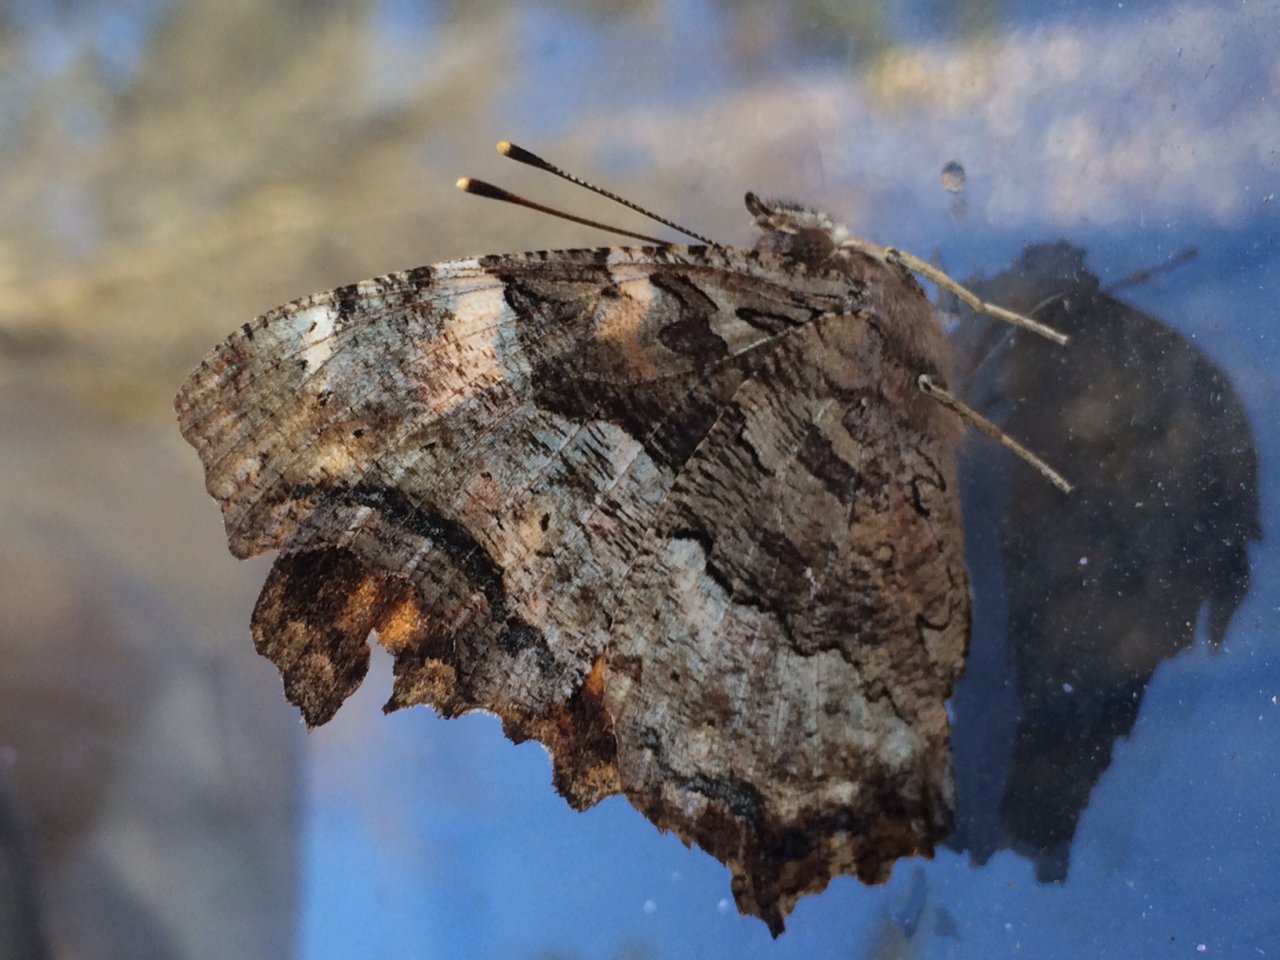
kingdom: Animalia
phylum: Arthropoda
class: Insecta
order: Lepidoptera
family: Nymphalidae
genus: Polygonia
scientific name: Polygonia vaualbum
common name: Compton Tortoiseshell
